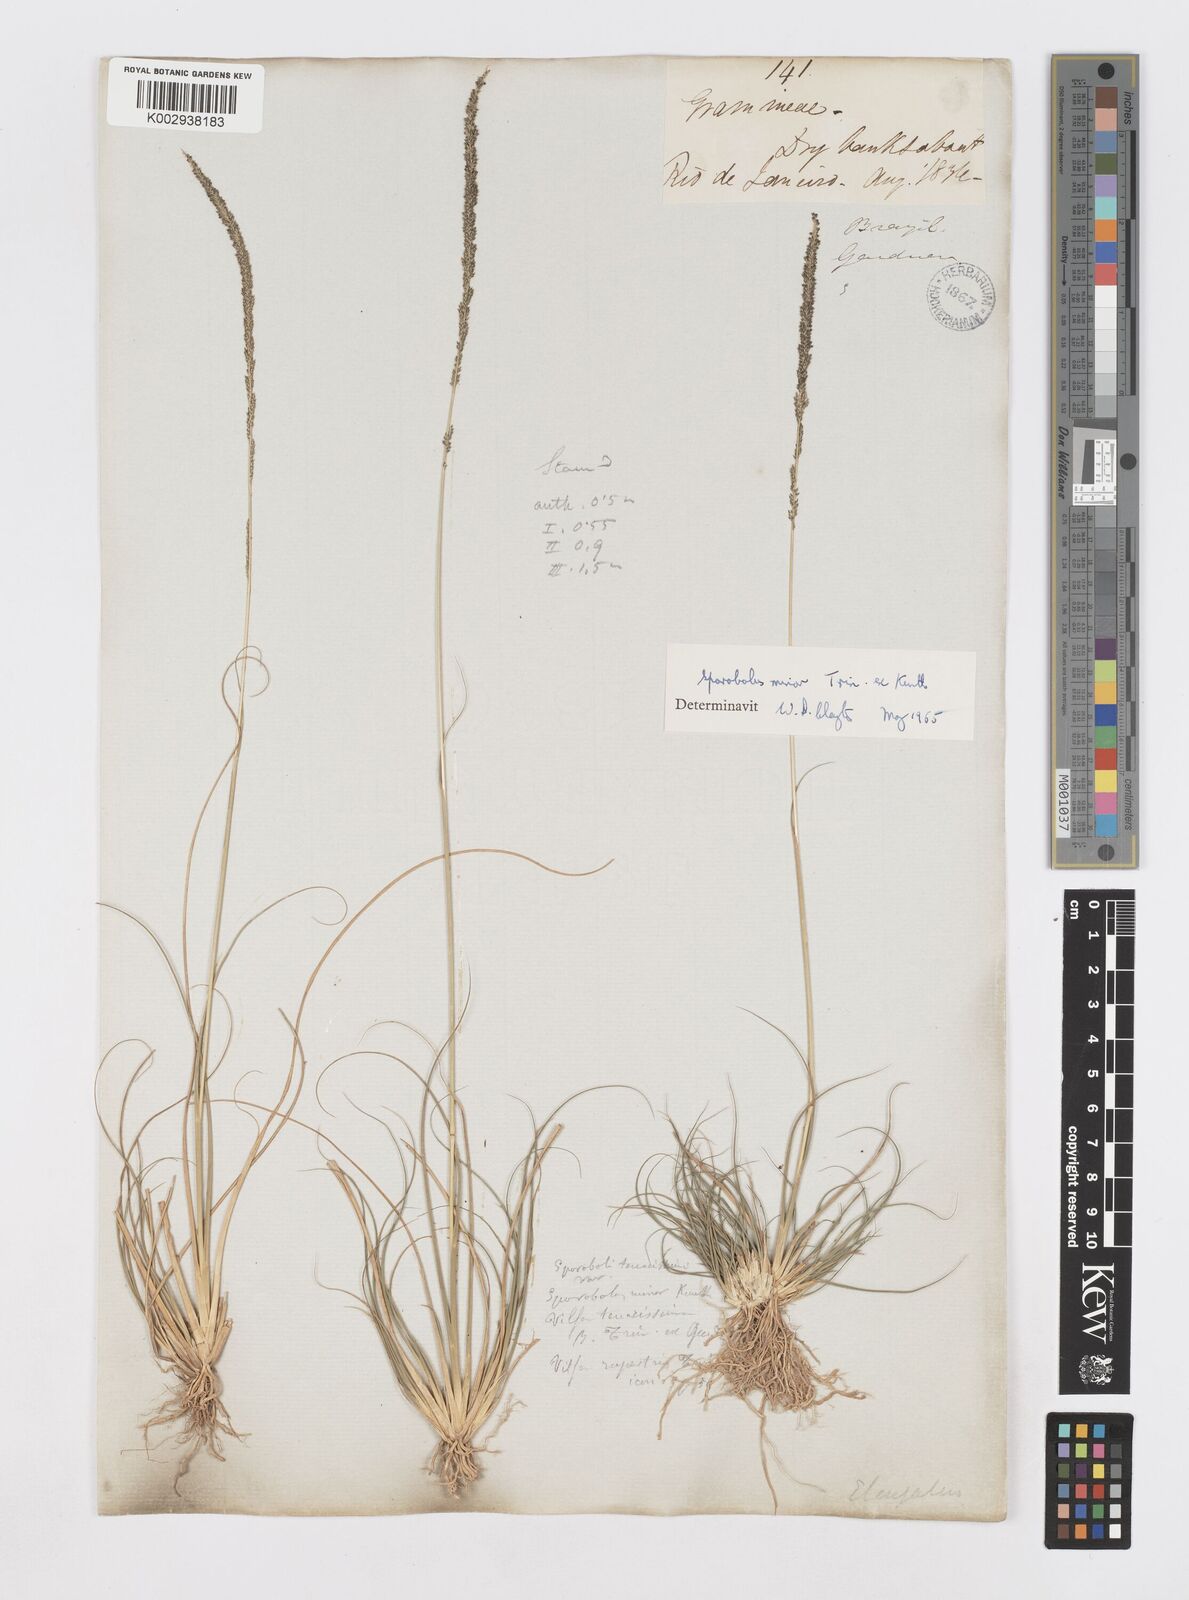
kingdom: Plantae
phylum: Tracheophyta
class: Liliopsida
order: Poales
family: Poaceae
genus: Sporobolus
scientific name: Sporobolus indicus
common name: Smut grass
